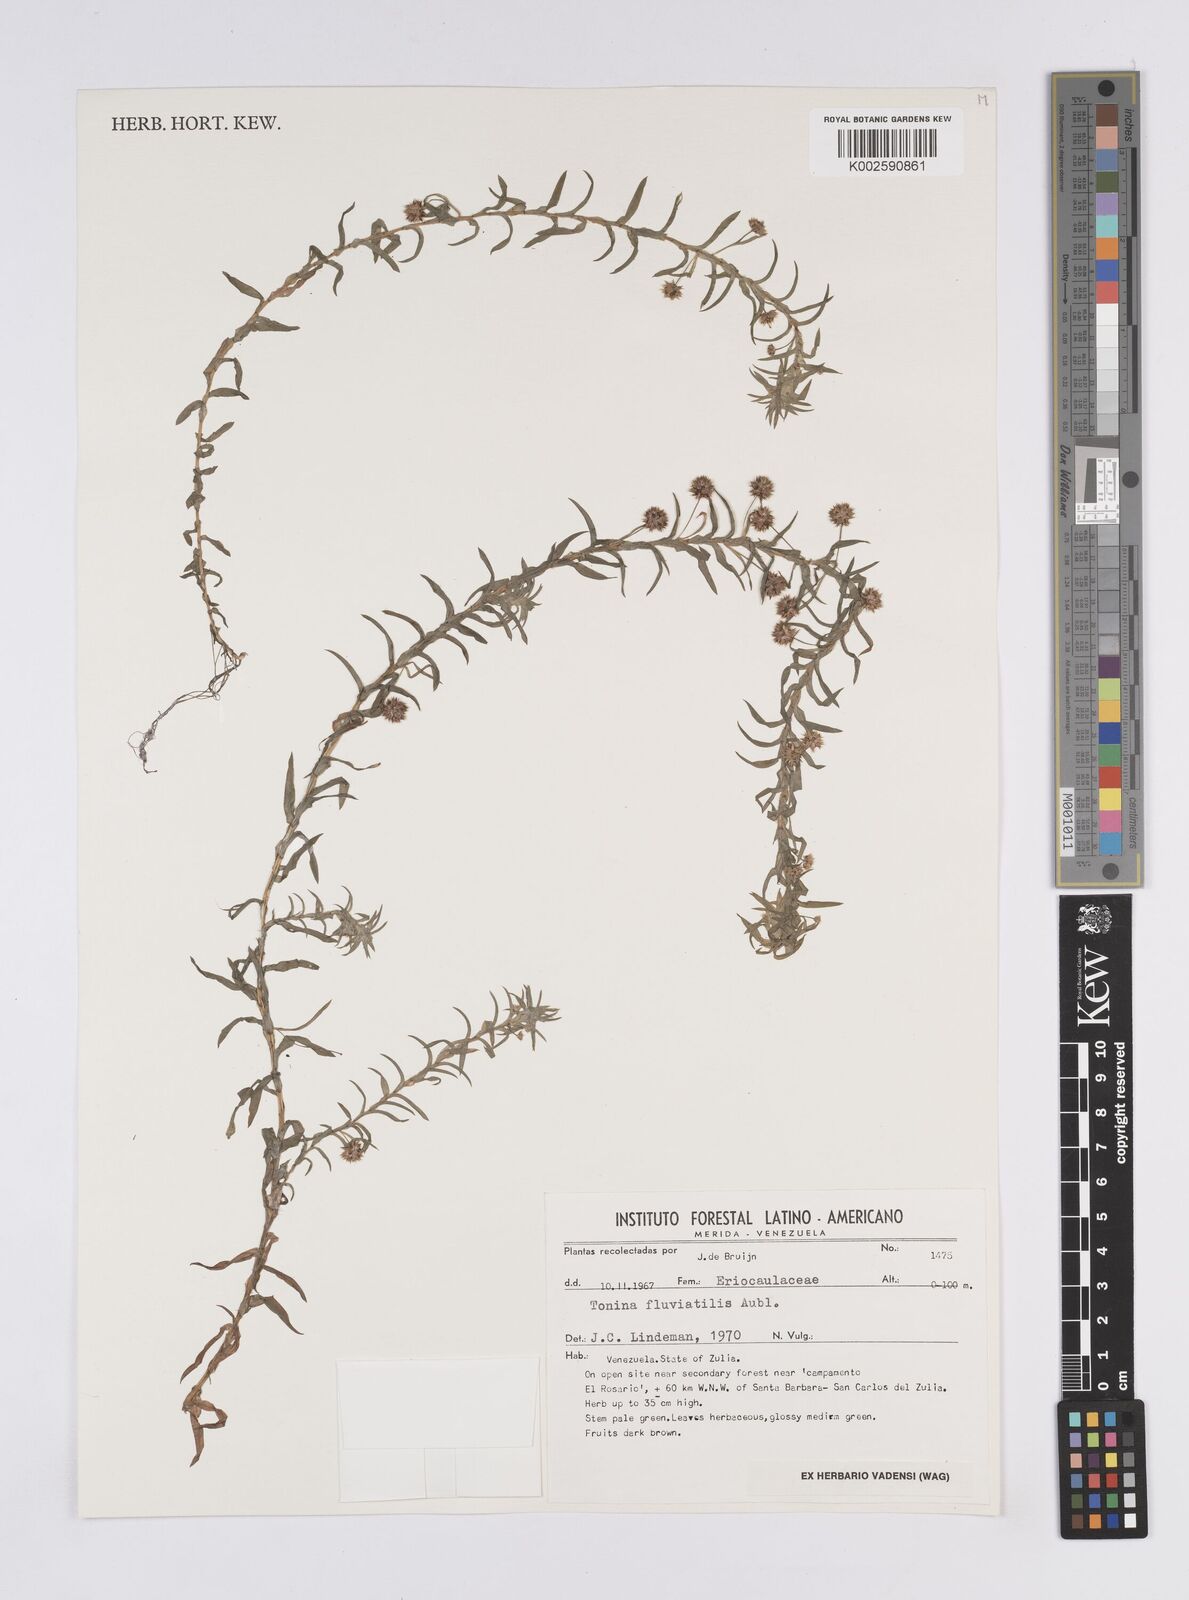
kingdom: Plantae
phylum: Tracheophyta
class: Liliopsida
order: Poales
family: Eriocaulaceae
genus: Paepalanthus
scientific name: Paepalanthus fluviatilis
